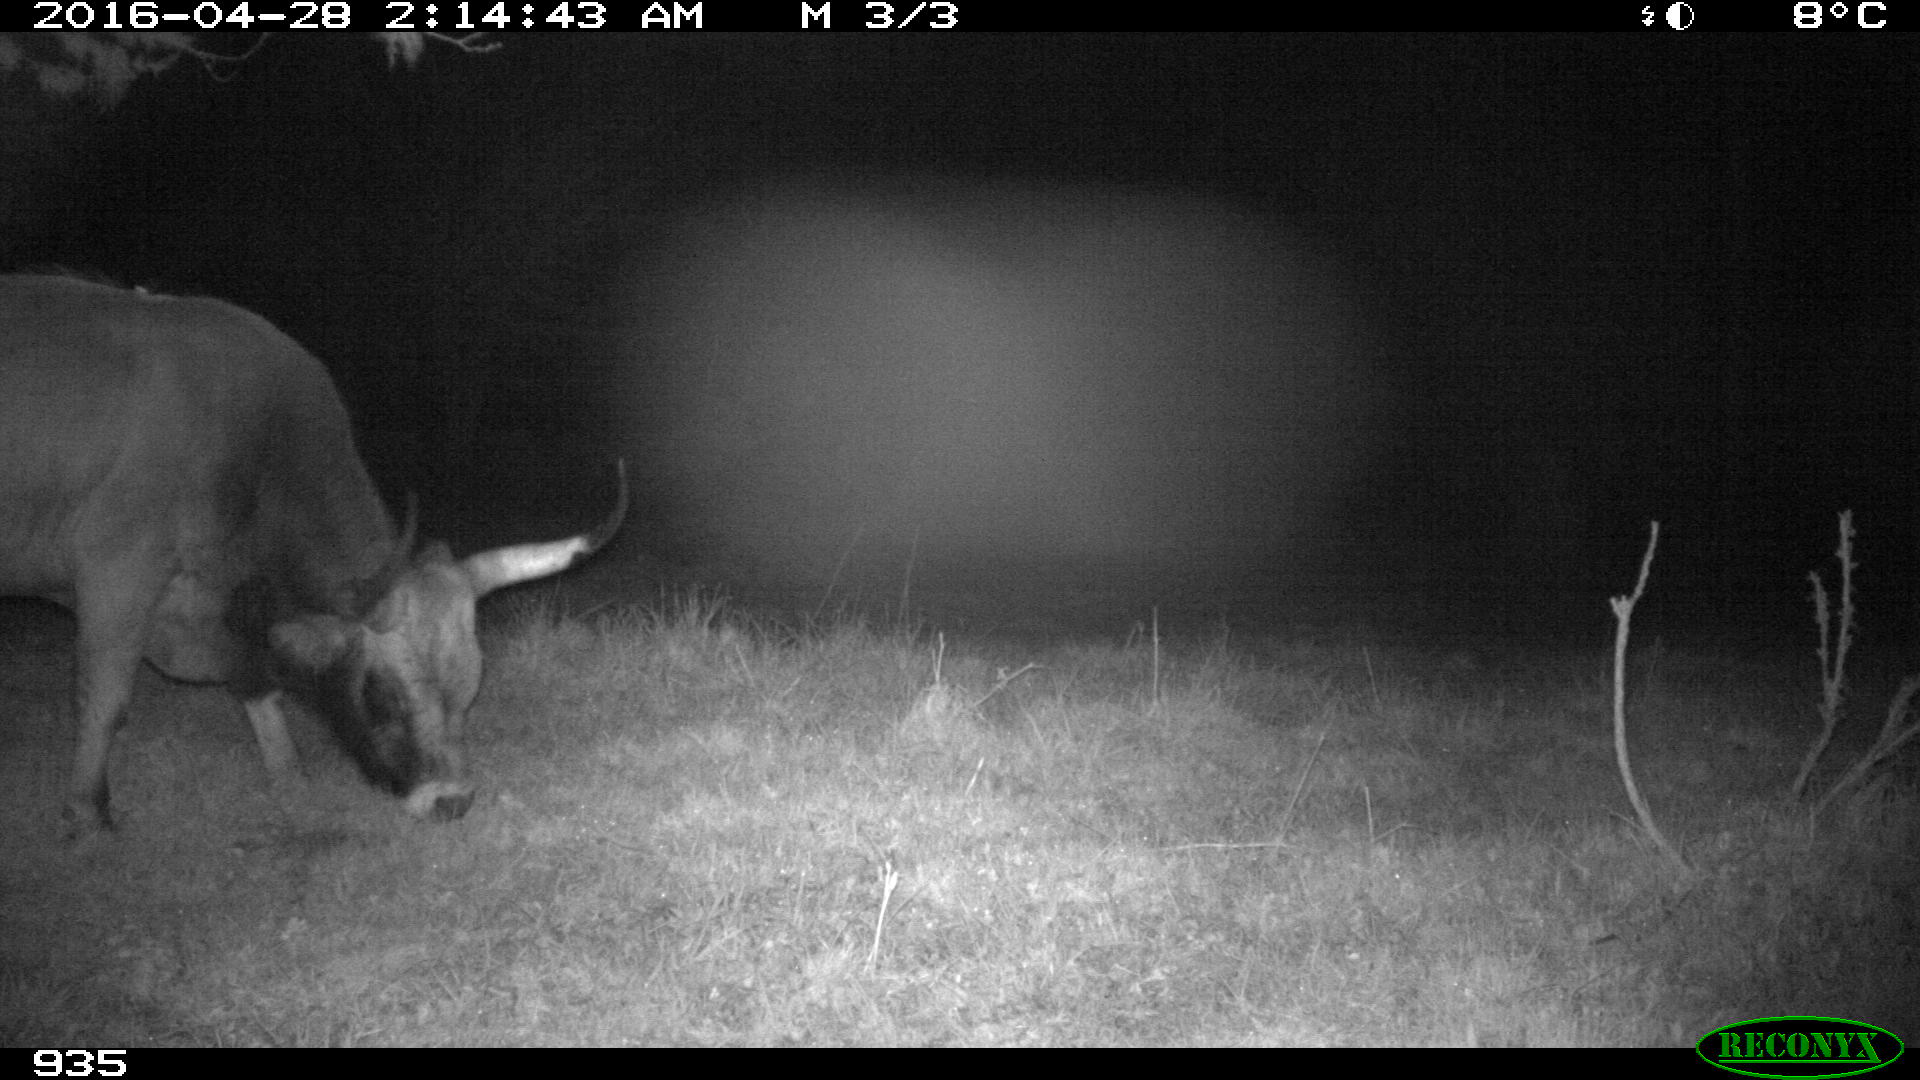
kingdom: Animalia
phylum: Chordata
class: Mammalia
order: Artiodactyla
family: Bovidae
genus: Bos
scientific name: Bos taurus
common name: Domesticated cattle
